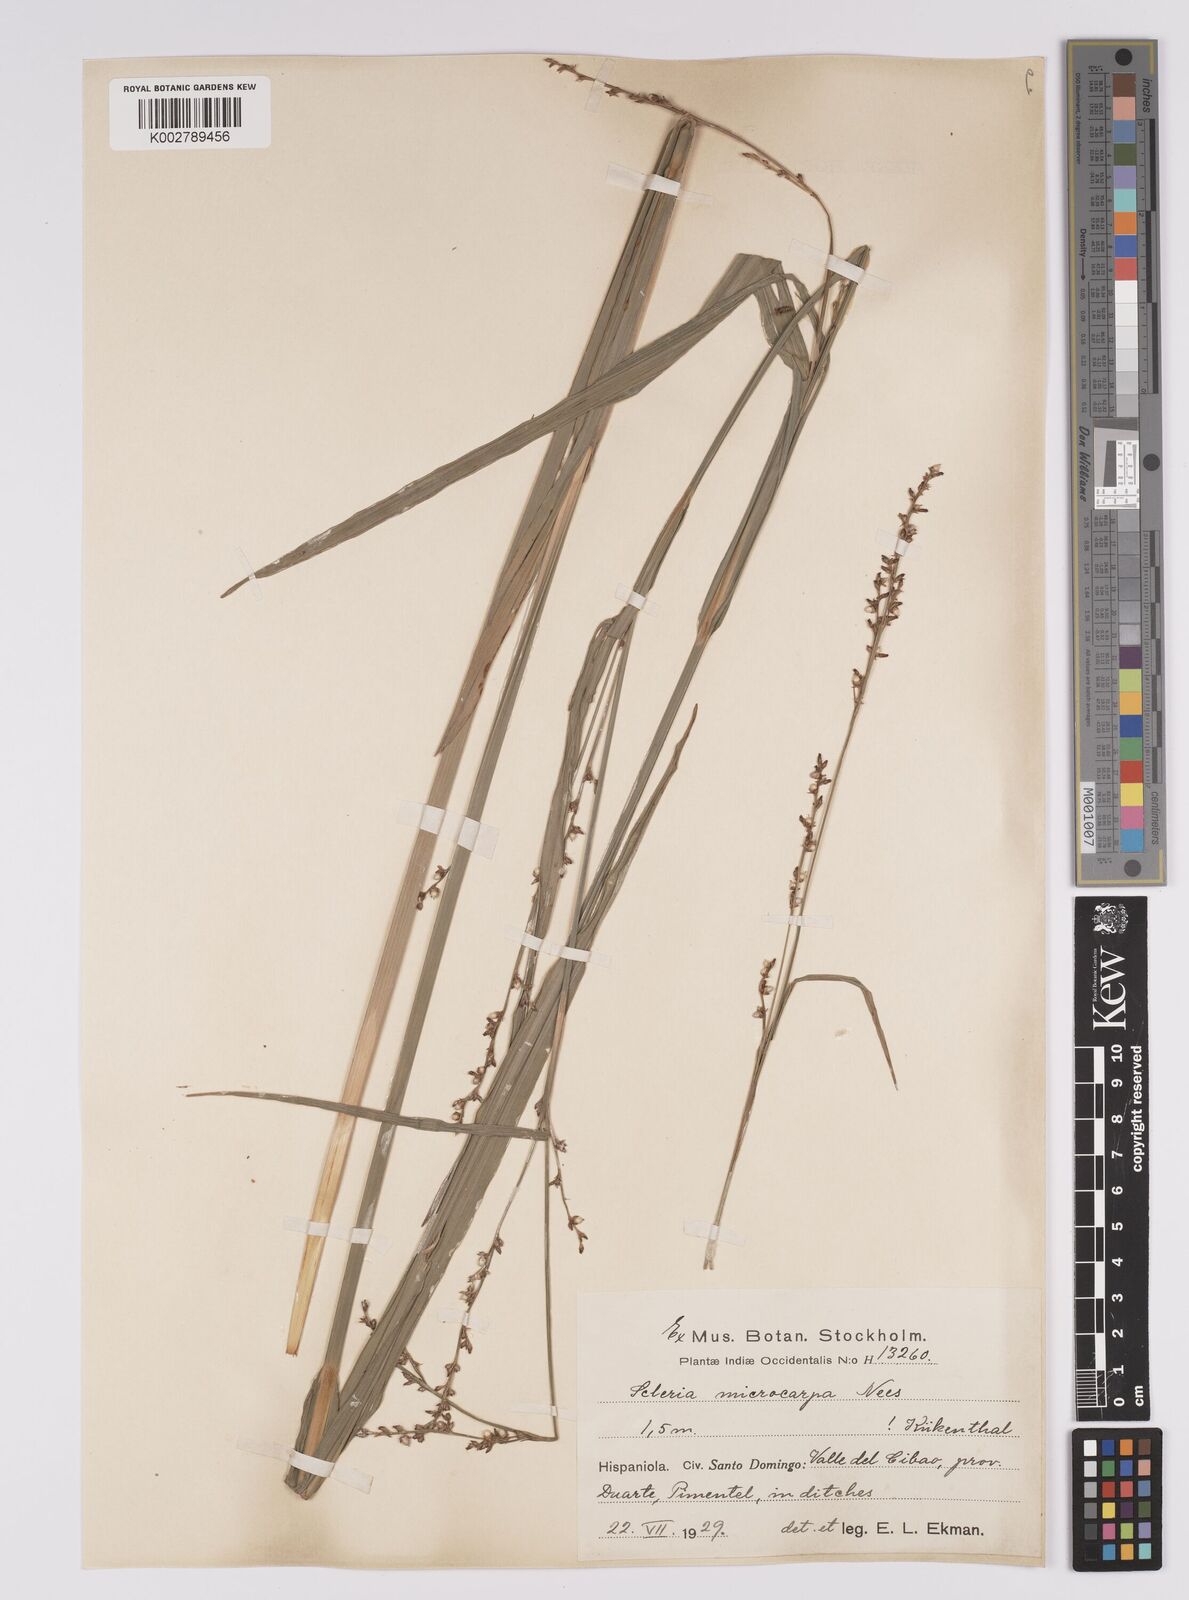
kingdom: Plantae
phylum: Tracheophyta
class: Liliopsida
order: Poales
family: Cyperaceae
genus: Scleria
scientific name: Scleria microcarpa
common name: Tropical nutrush
